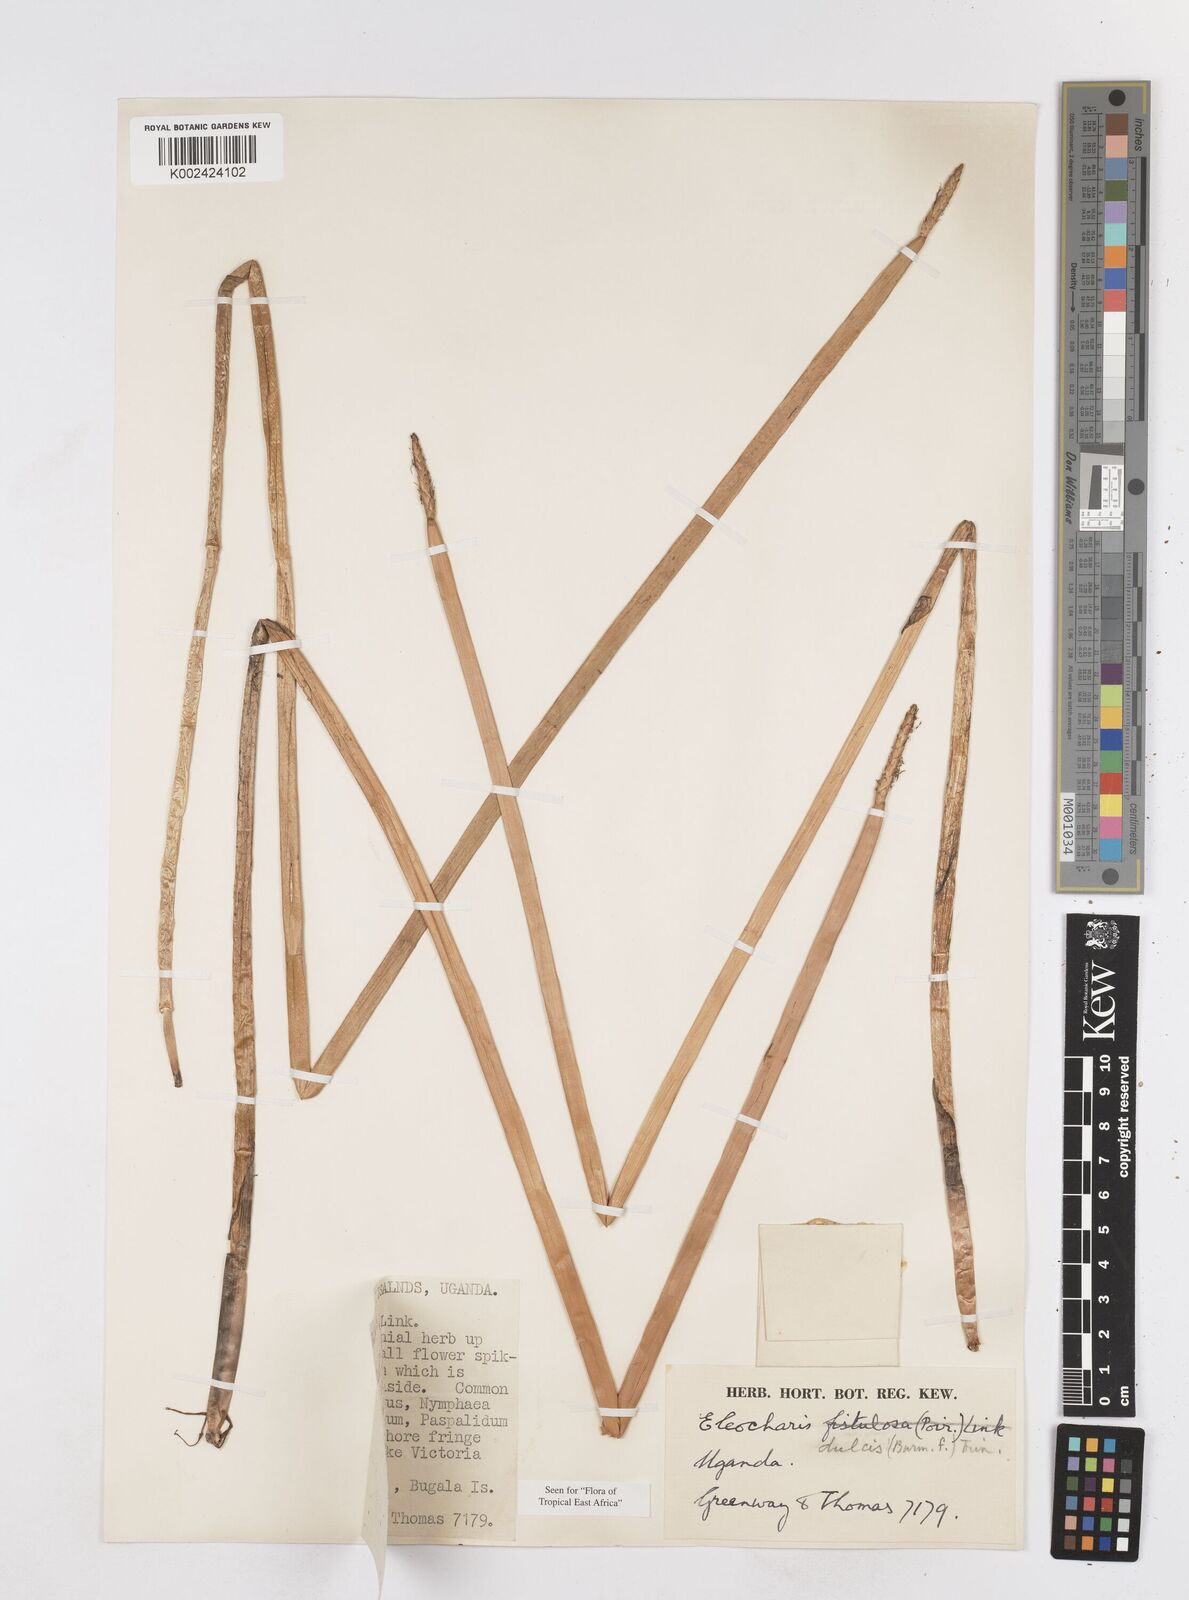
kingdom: Plantae
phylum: Tracheophyta
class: Liliopsida
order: Poales
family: Cyperaceae
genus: Eleocharis
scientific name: Eleocharis dulcis
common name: Chinese water chestnut
